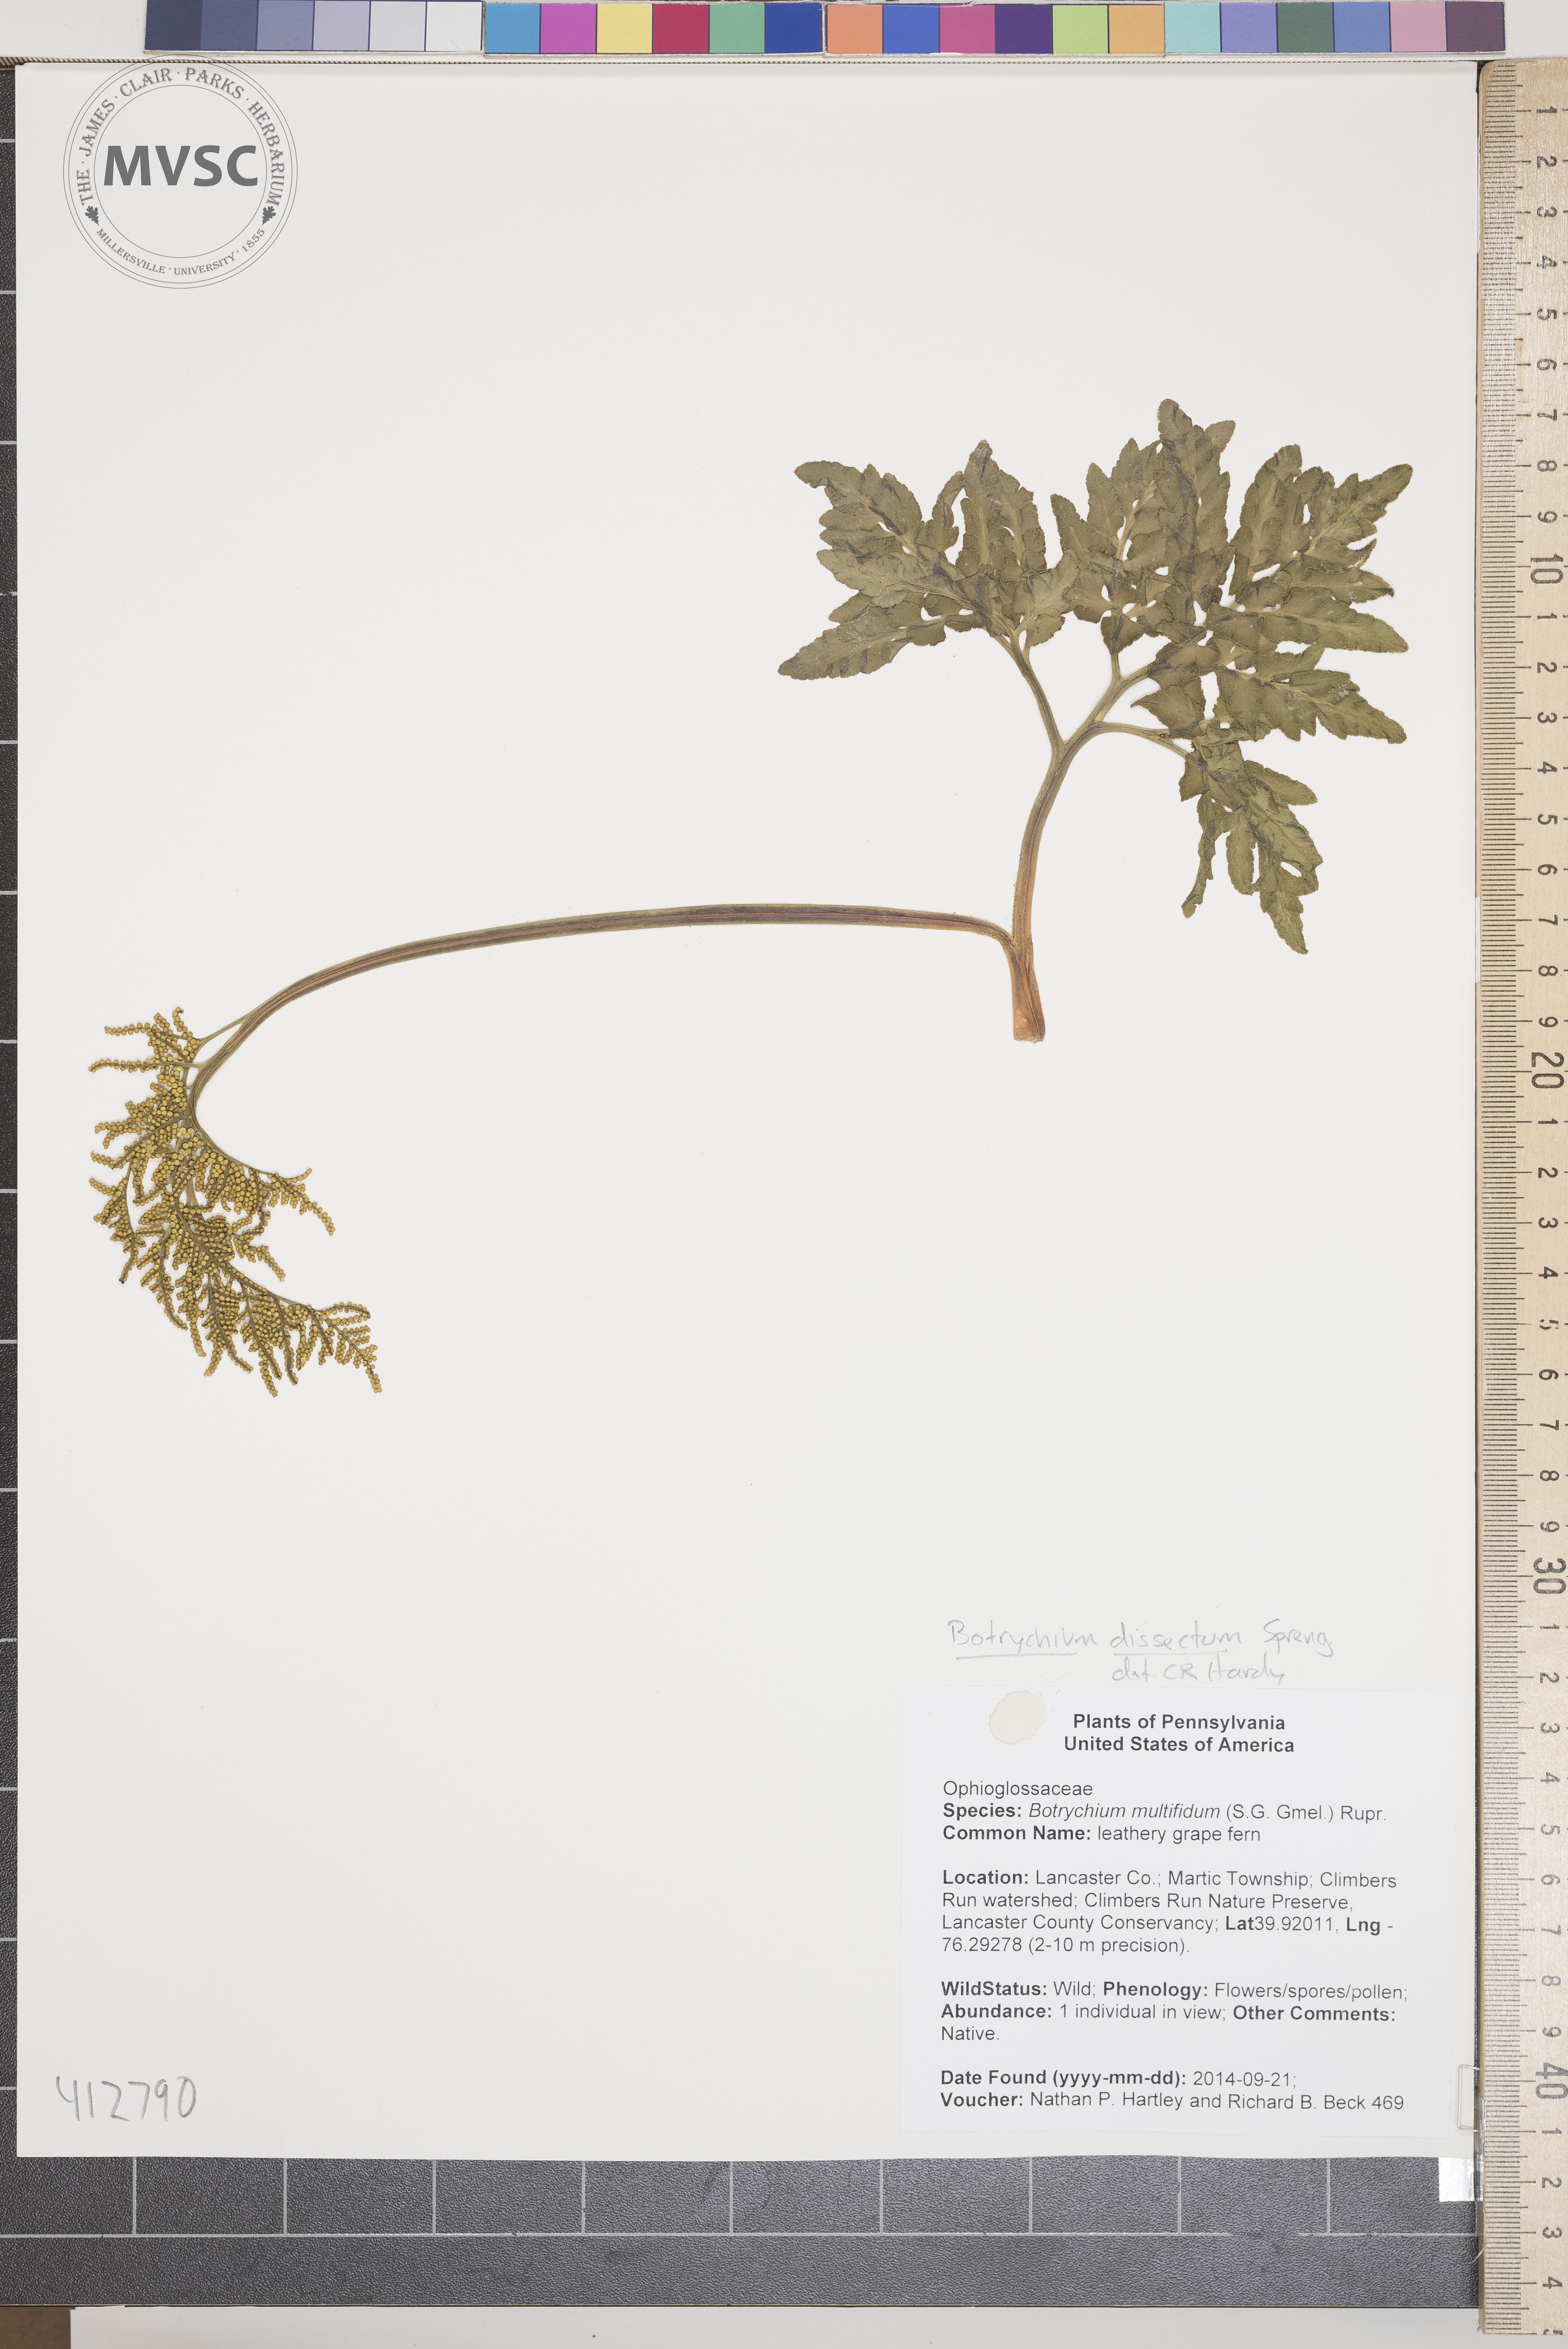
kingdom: Plantae
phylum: Tracheophyta
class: Polypodiopsida
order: Ophioglossales
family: Ophioglossaceae
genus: Sceptridium
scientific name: Sceptridium dissectum
